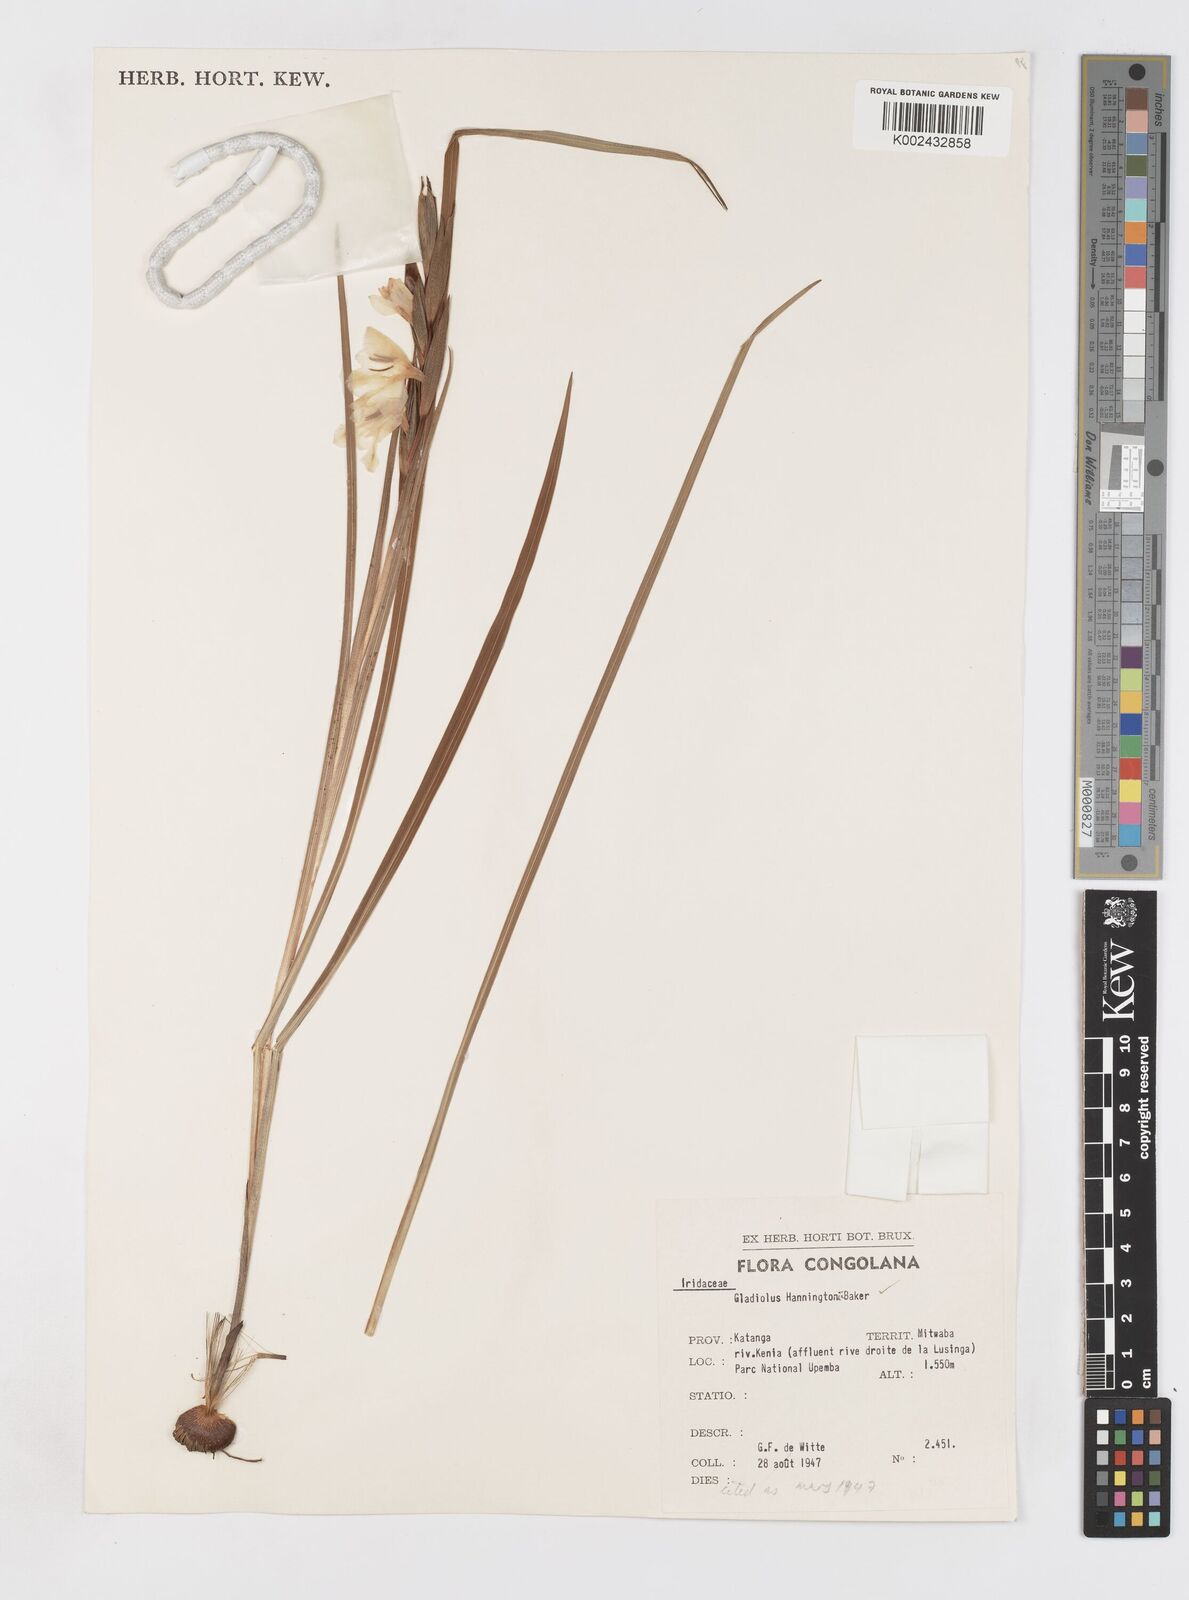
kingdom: Plantae
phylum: Tracheophyta
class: Liliopsida
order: Asparagales
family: Iridaceae
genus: Gladiolus
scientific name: Gladiolus gregarius
